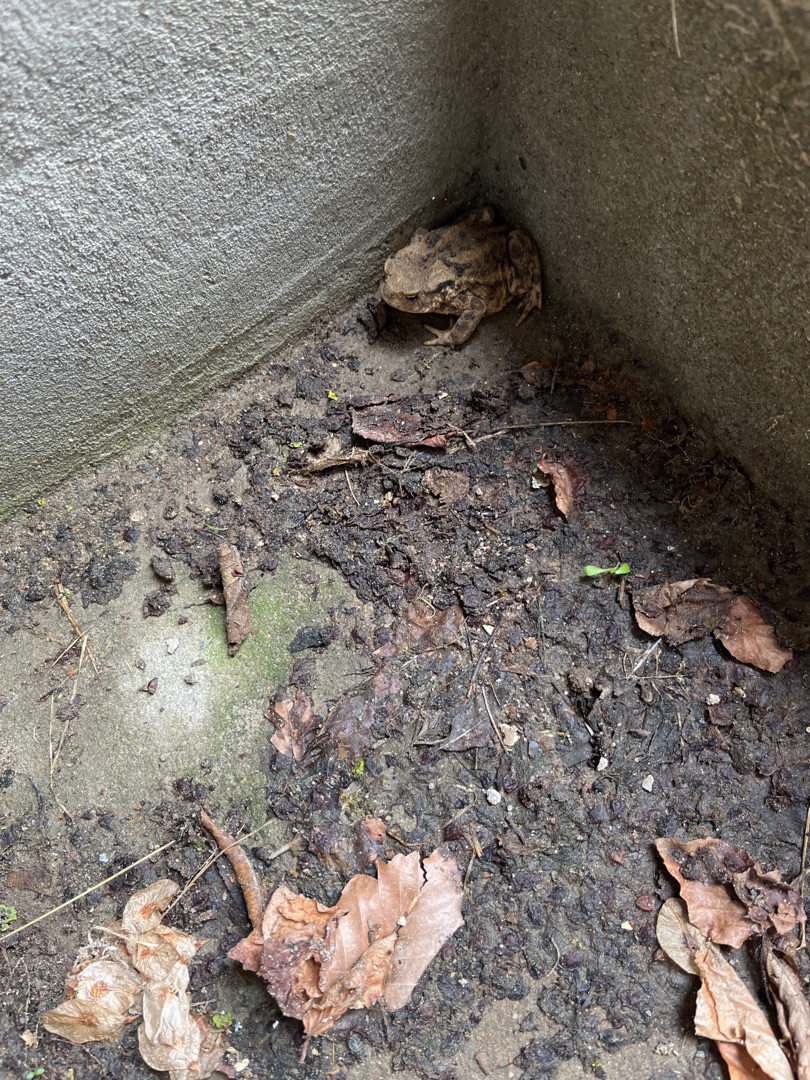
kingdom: Animalia
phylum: Chordata
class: Amphibia
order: Anura
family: Bufonidae
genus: Bufo
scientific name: Bufo bufo
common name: Skrubtudse
